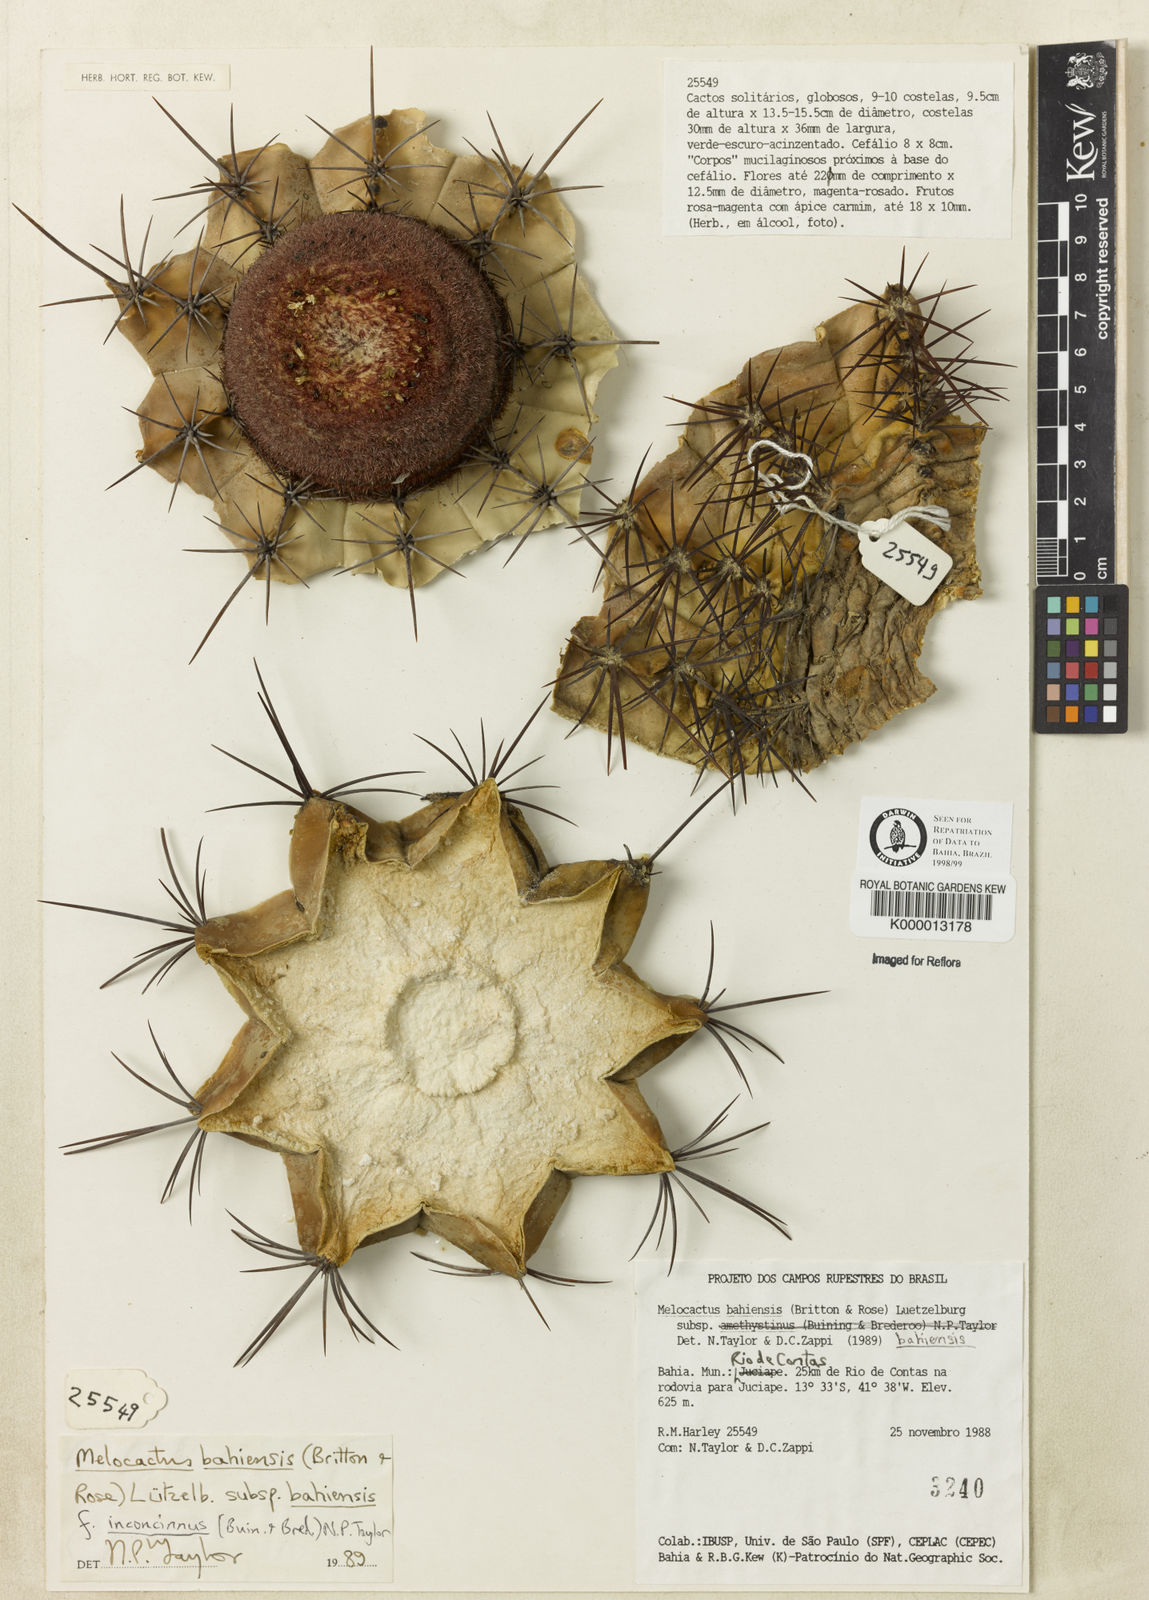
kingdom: Plantae
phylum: Tracheophyta
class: Magnoliopsida
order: Caryophyllales
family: Cactaceae
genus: Melocactus
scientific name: Melocactus bahiensis
